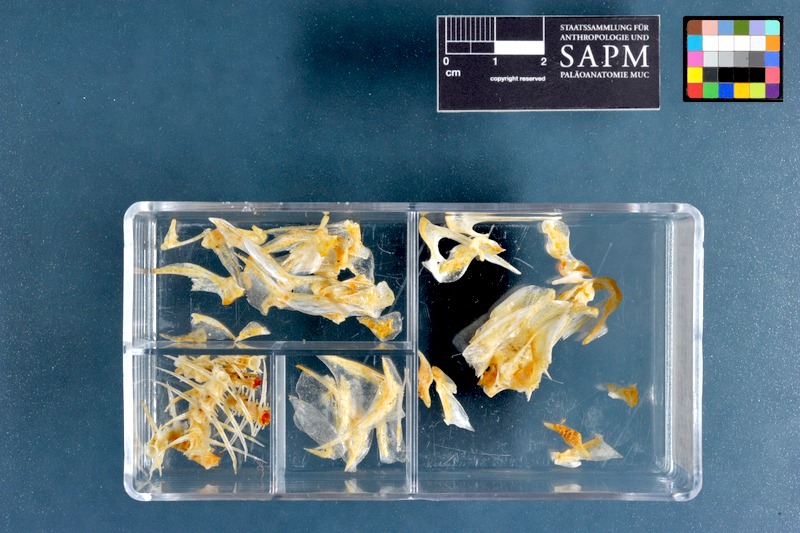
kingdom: Animalia
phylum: Chordata
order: Perciformes
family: Leiognathidae
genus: Equulites
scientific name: Equulites elongatus
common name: Slender ponyfish
